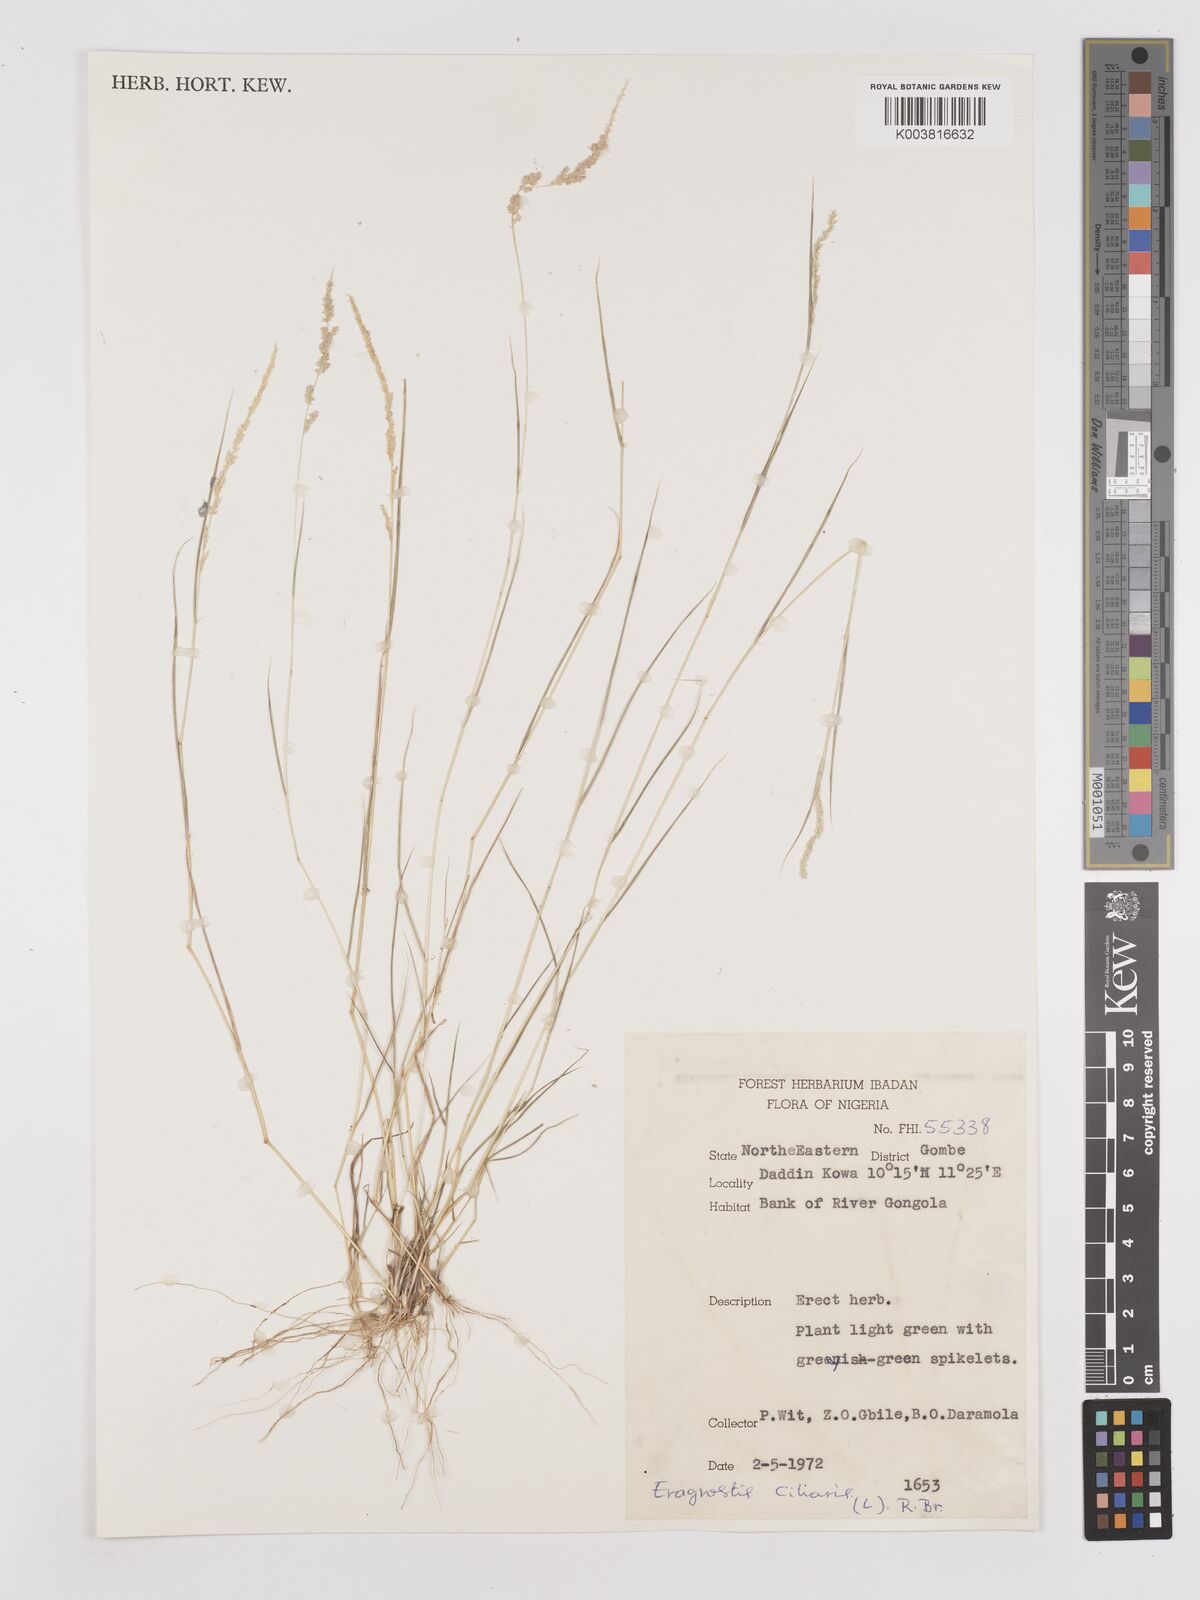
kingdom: Plantae
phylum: Tracheophyta
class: Liliopsida
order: Poales
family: Poaceae
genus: Eragrostis
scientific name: Eragrostis ciliaris
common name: Gophertail lovegrass
